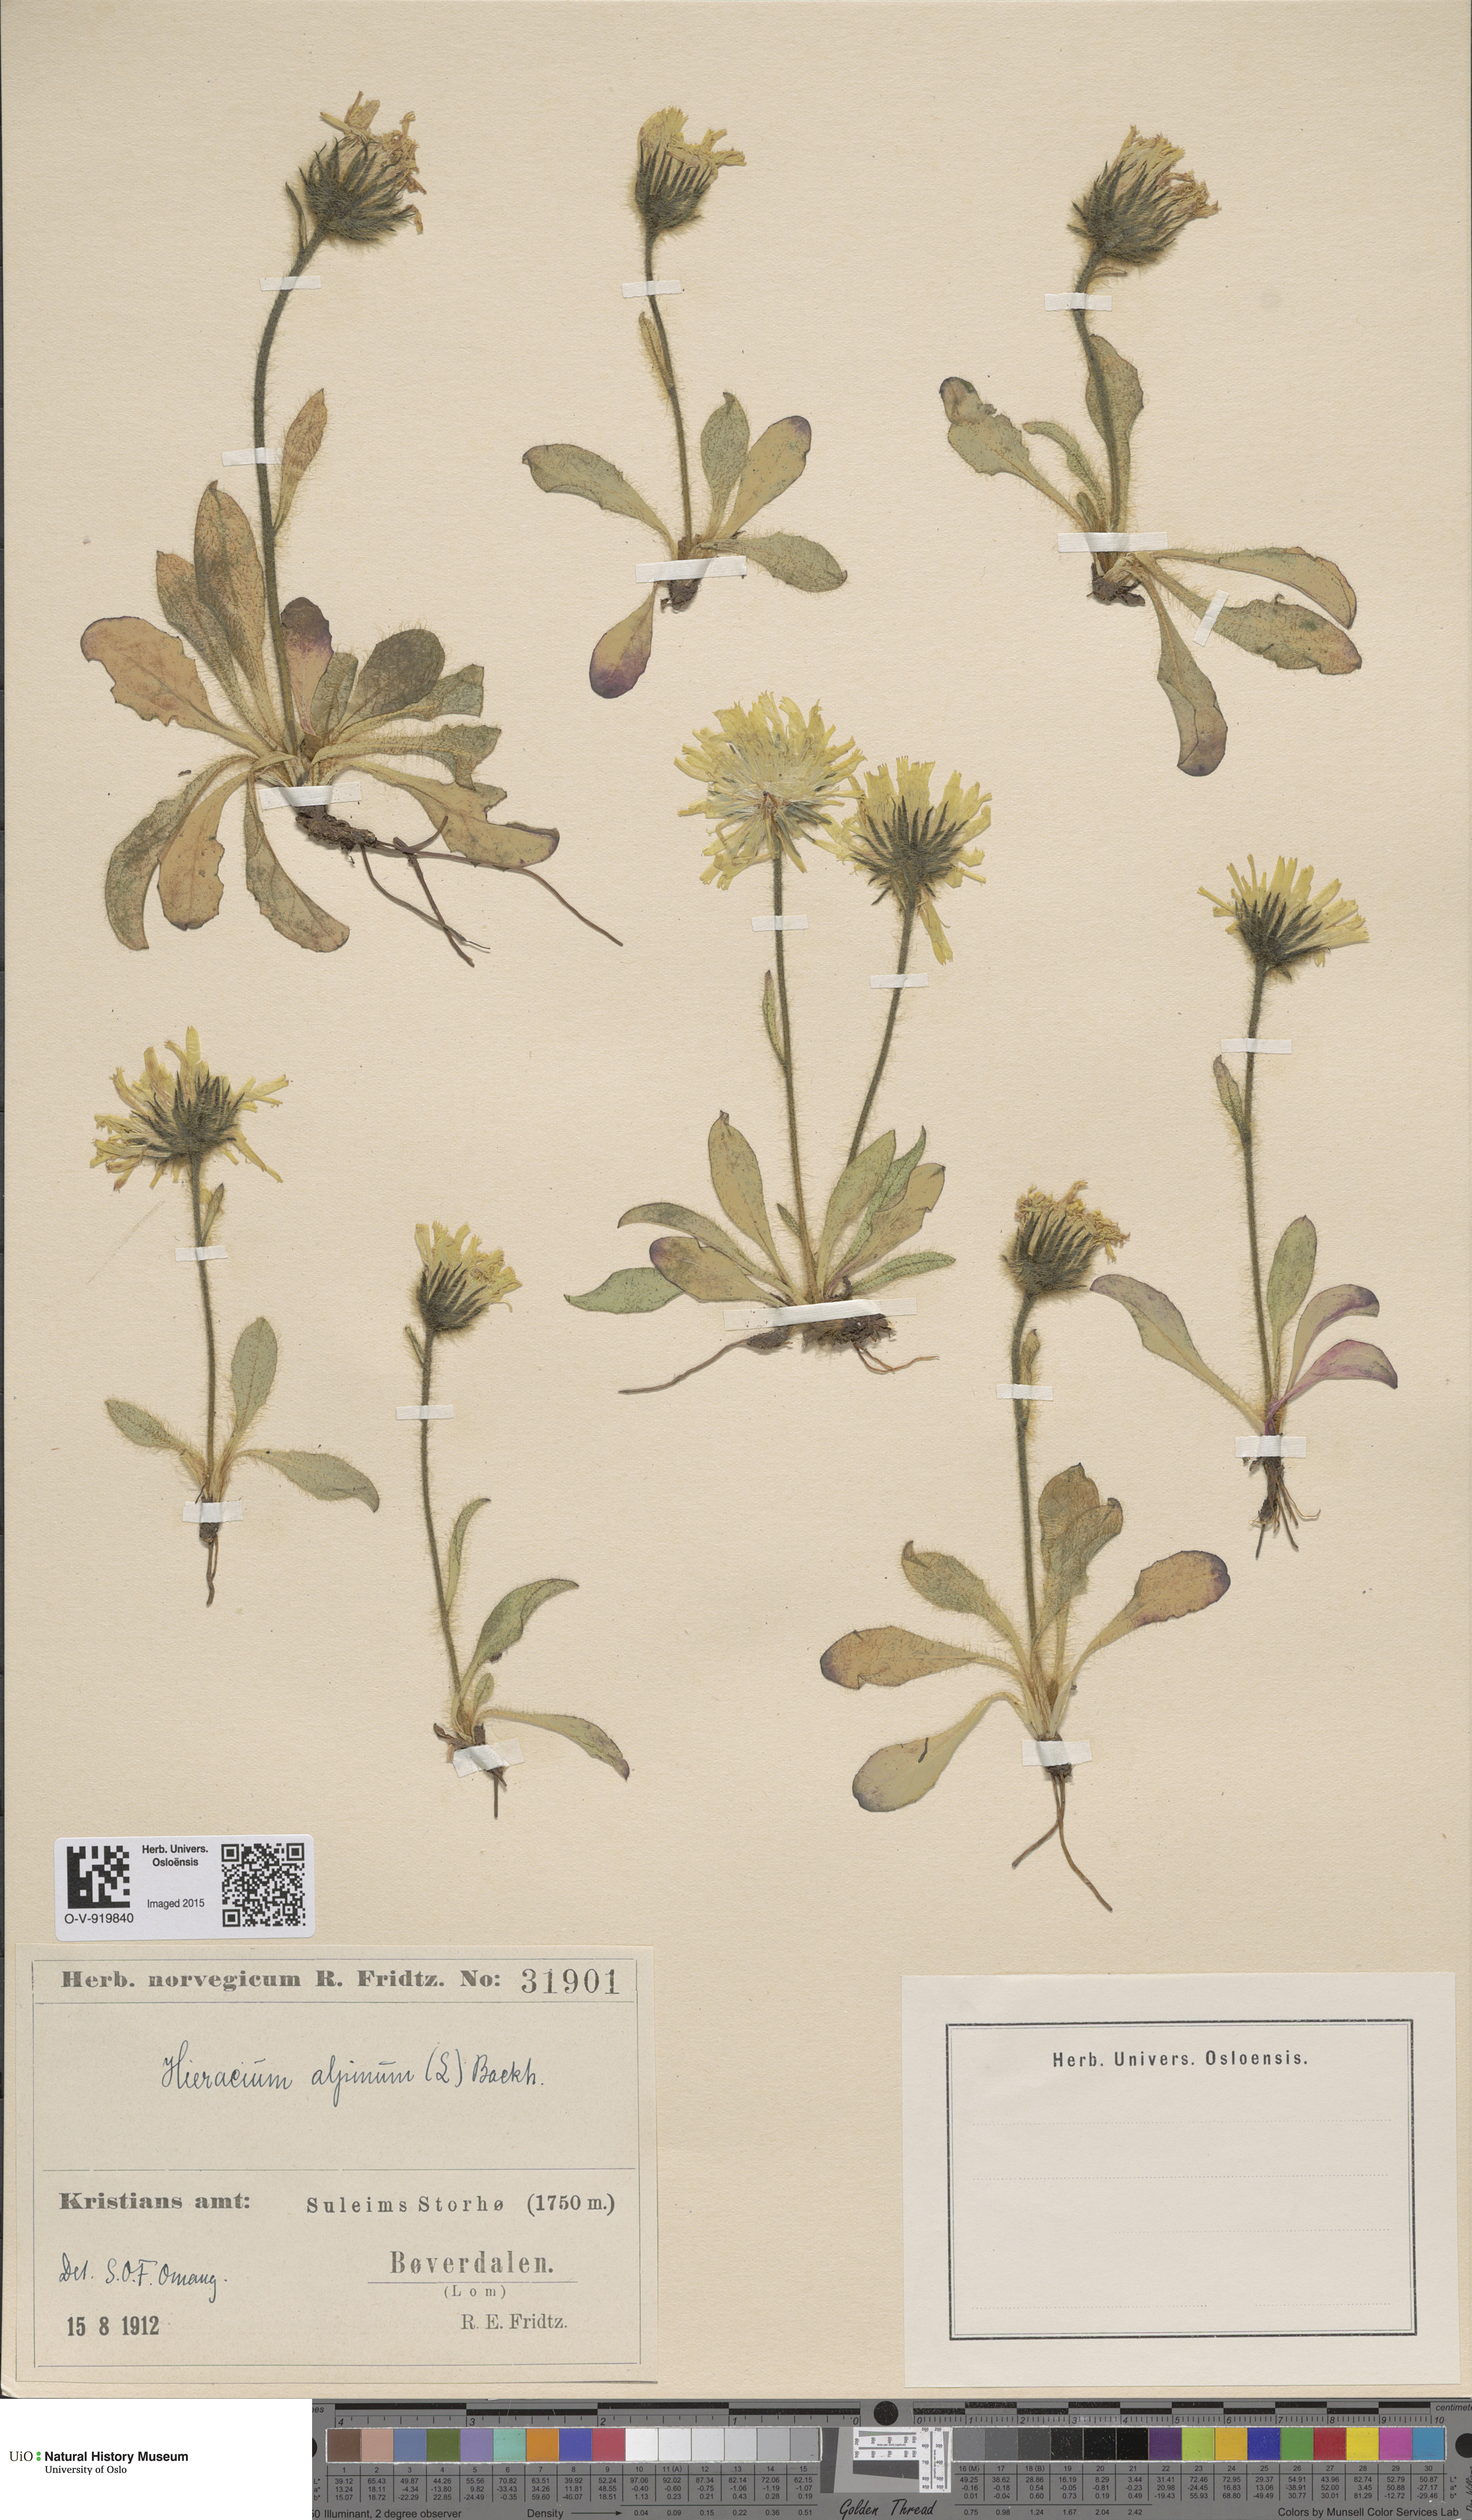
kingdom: Plantae
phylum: Tracheophyta
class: Magnoliopsida
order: Asterales
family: Asteraceae
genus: Hieracium
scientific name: Hieracium alpinum
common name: Alpine hawkweed
